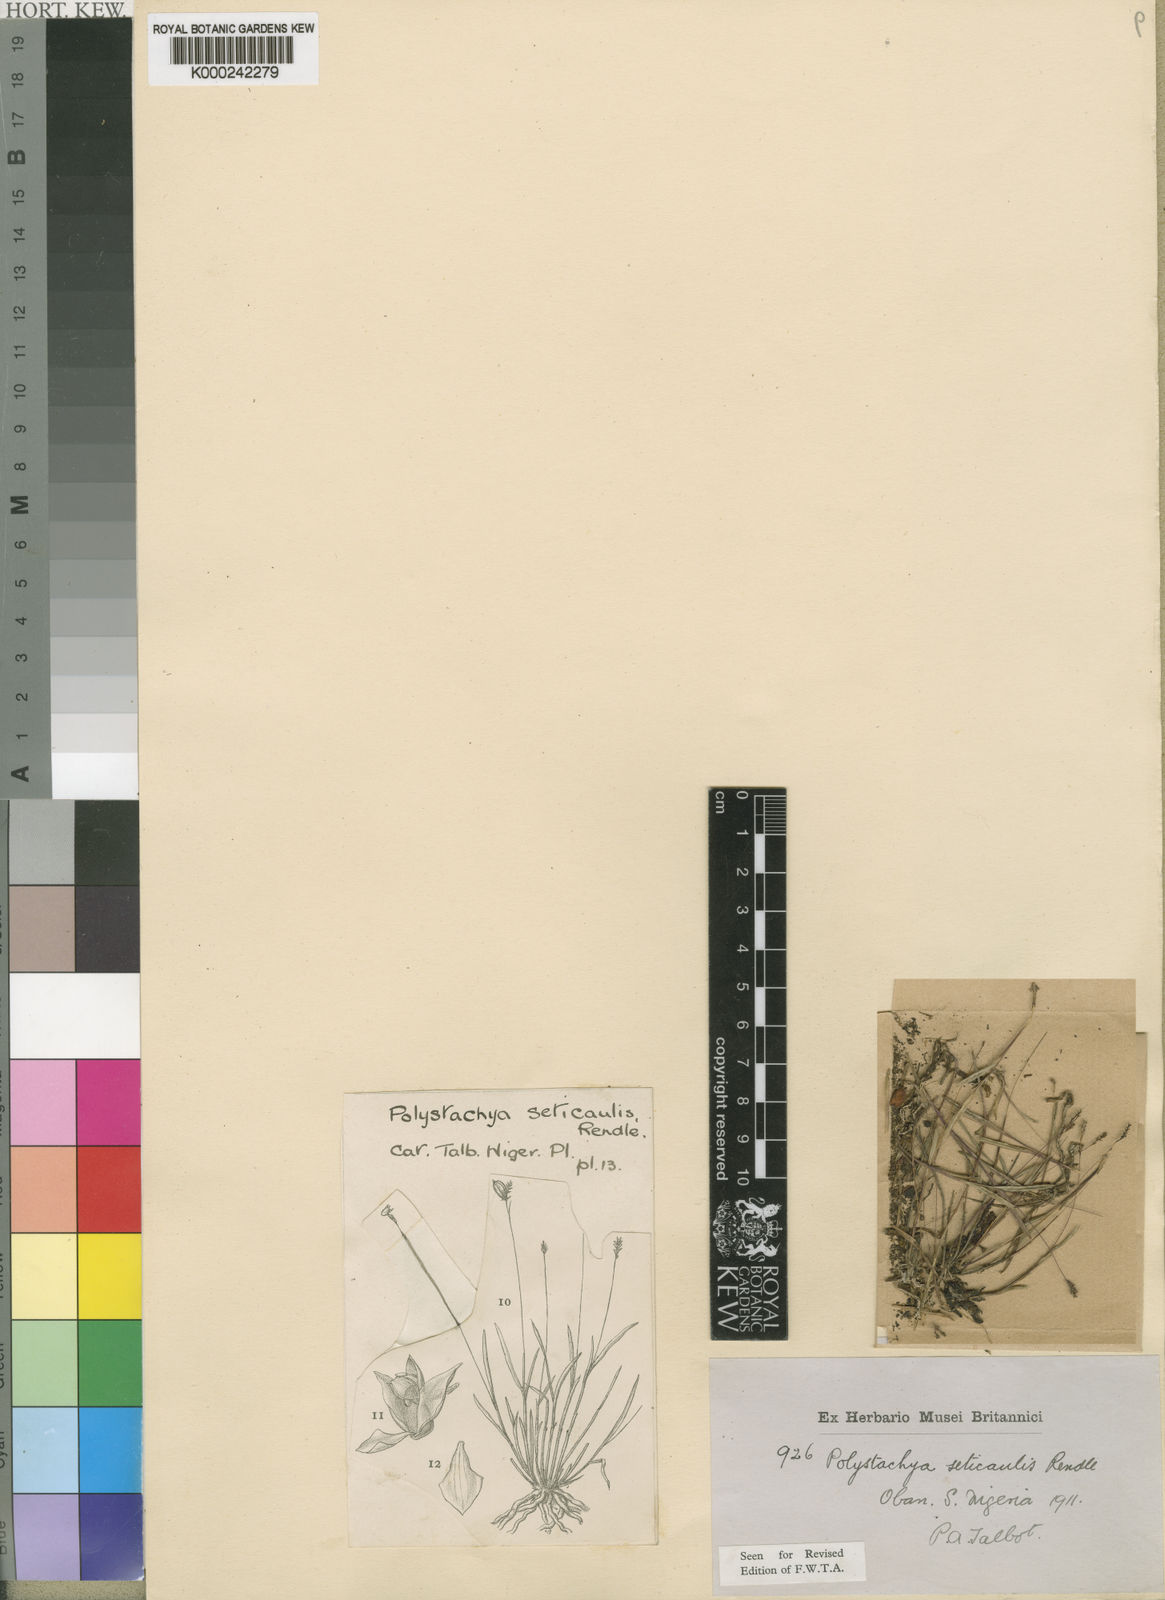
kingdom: Plantae
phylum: Tracheophyta
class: Liliopsida
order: Asparagales
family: Orchidaceae
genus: Polystachya
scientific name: Polystachya seticaulis
